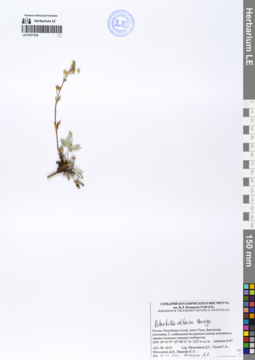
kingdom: Plantae
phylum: Tracheophyta
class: Magnoliopsida
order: Rosales
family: Rosaceae
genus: Potentilla
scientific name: Potentilla altaica
